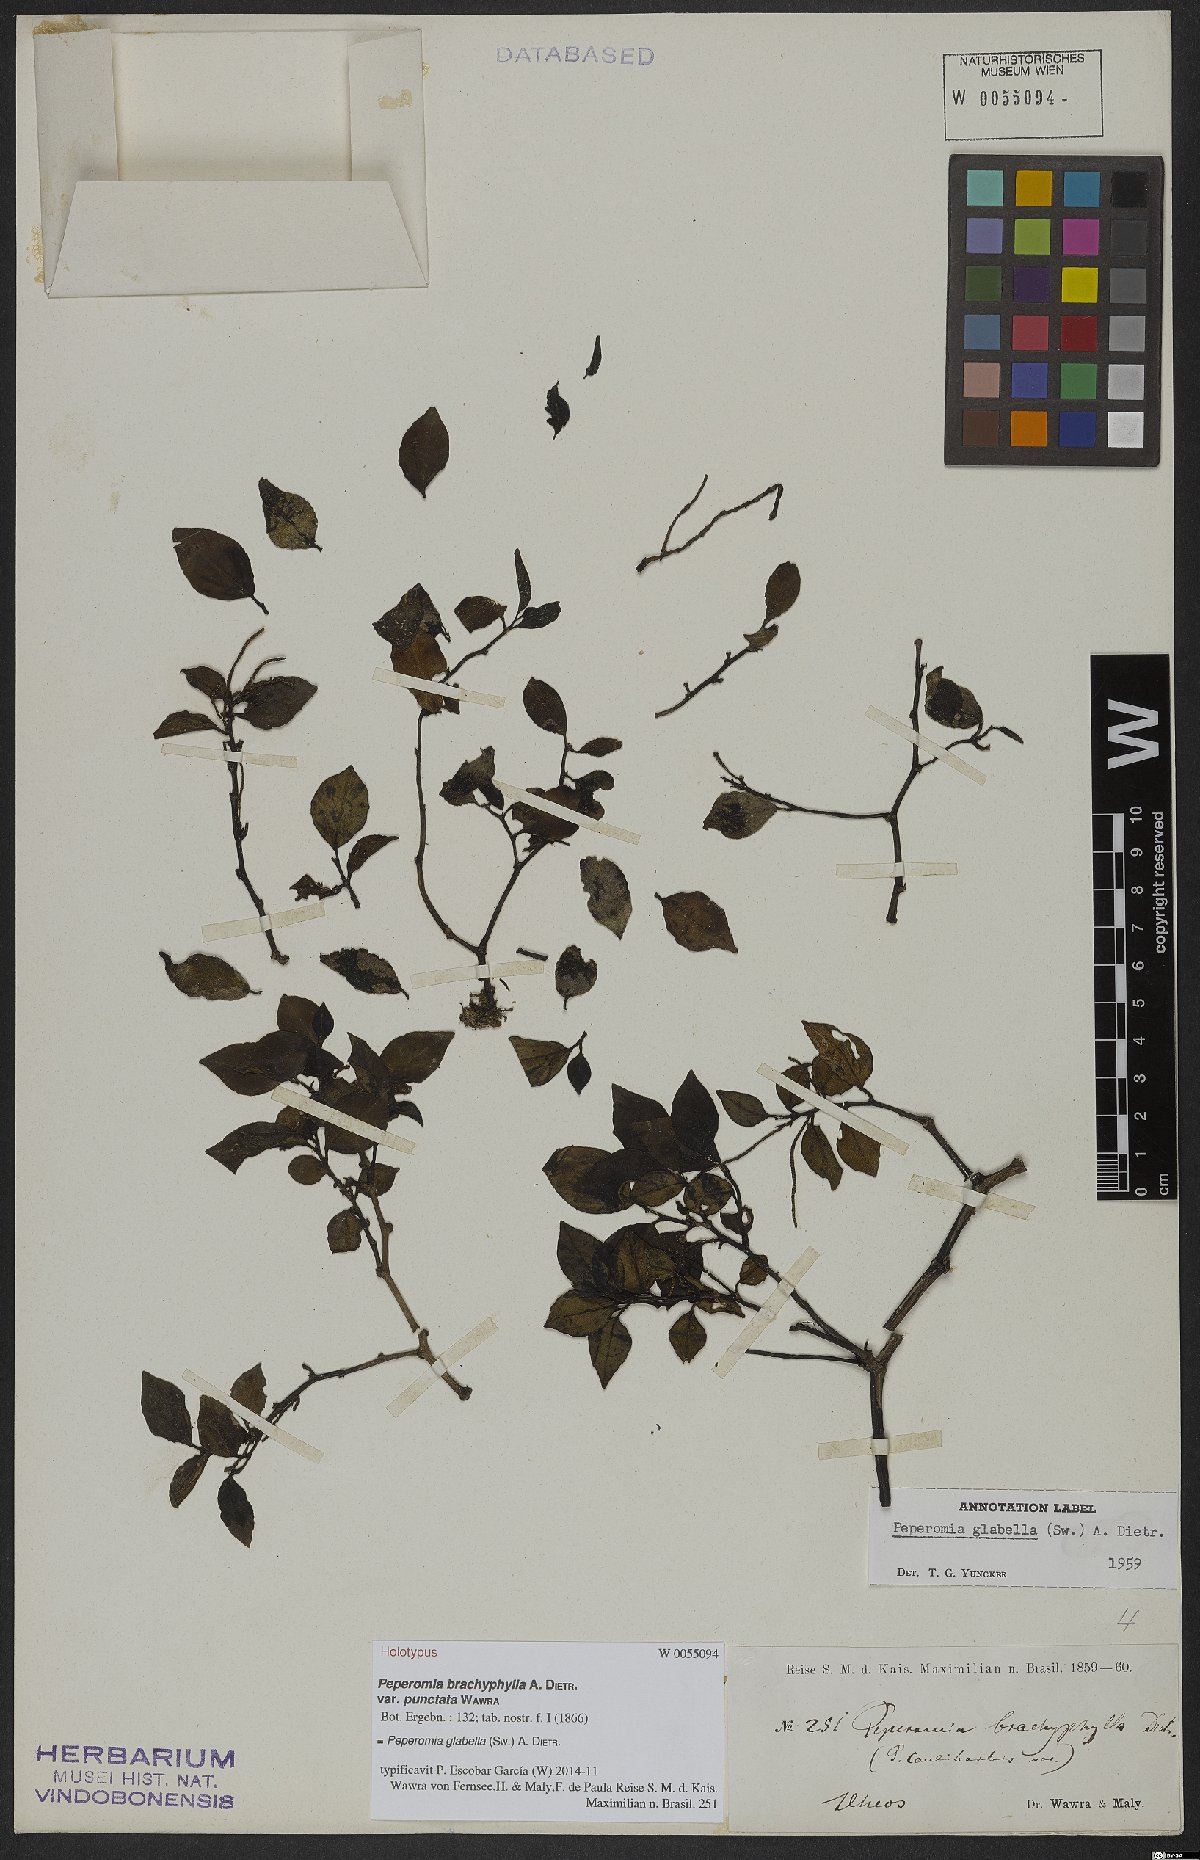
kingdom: Plantae
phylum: Tracheophyta
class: Magnoliopsida
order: Piperales
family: Piperaceae
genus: Peperomia
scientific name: Peperomia glabella
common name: Cypress peperomia
